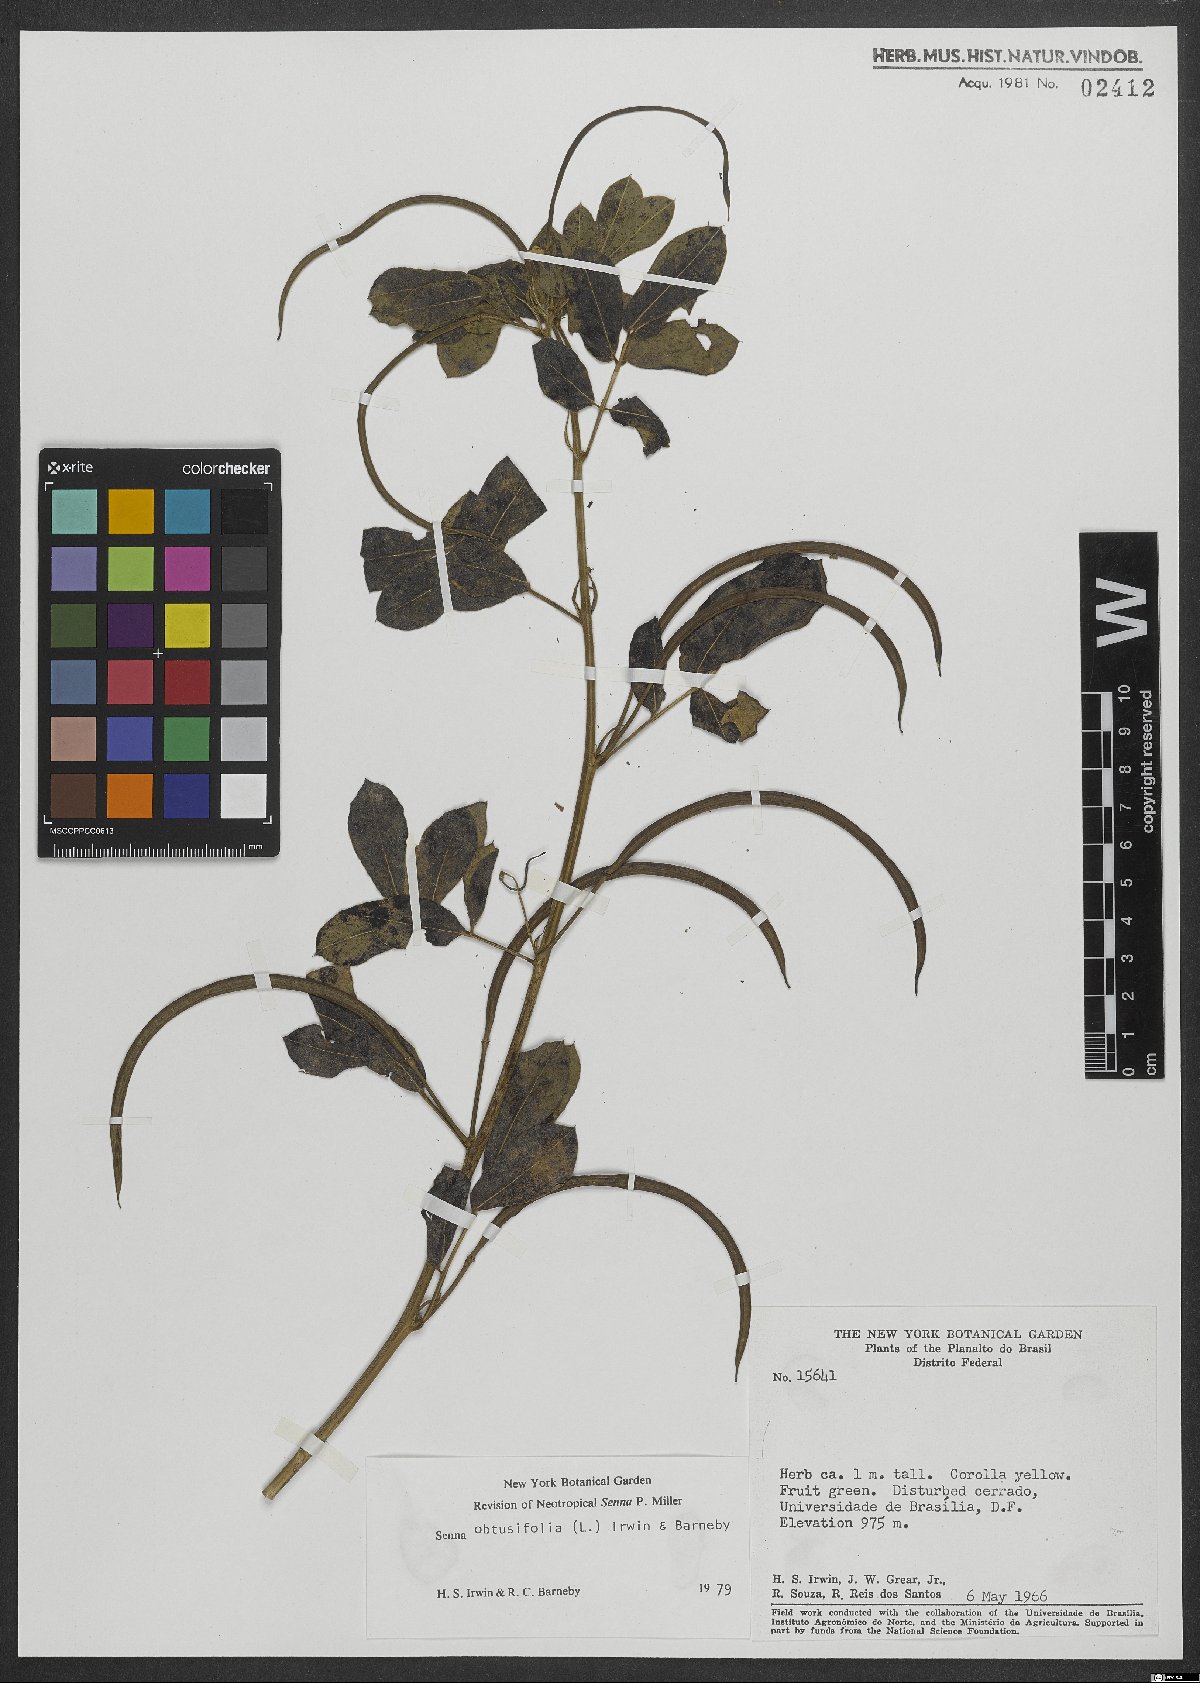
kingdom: Plantae
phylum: Tracheophyta
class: Magnoliopsida
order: Fabales
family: Fabaceae
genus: Senna
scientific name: Senna obtusifolia
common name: Java-bean
